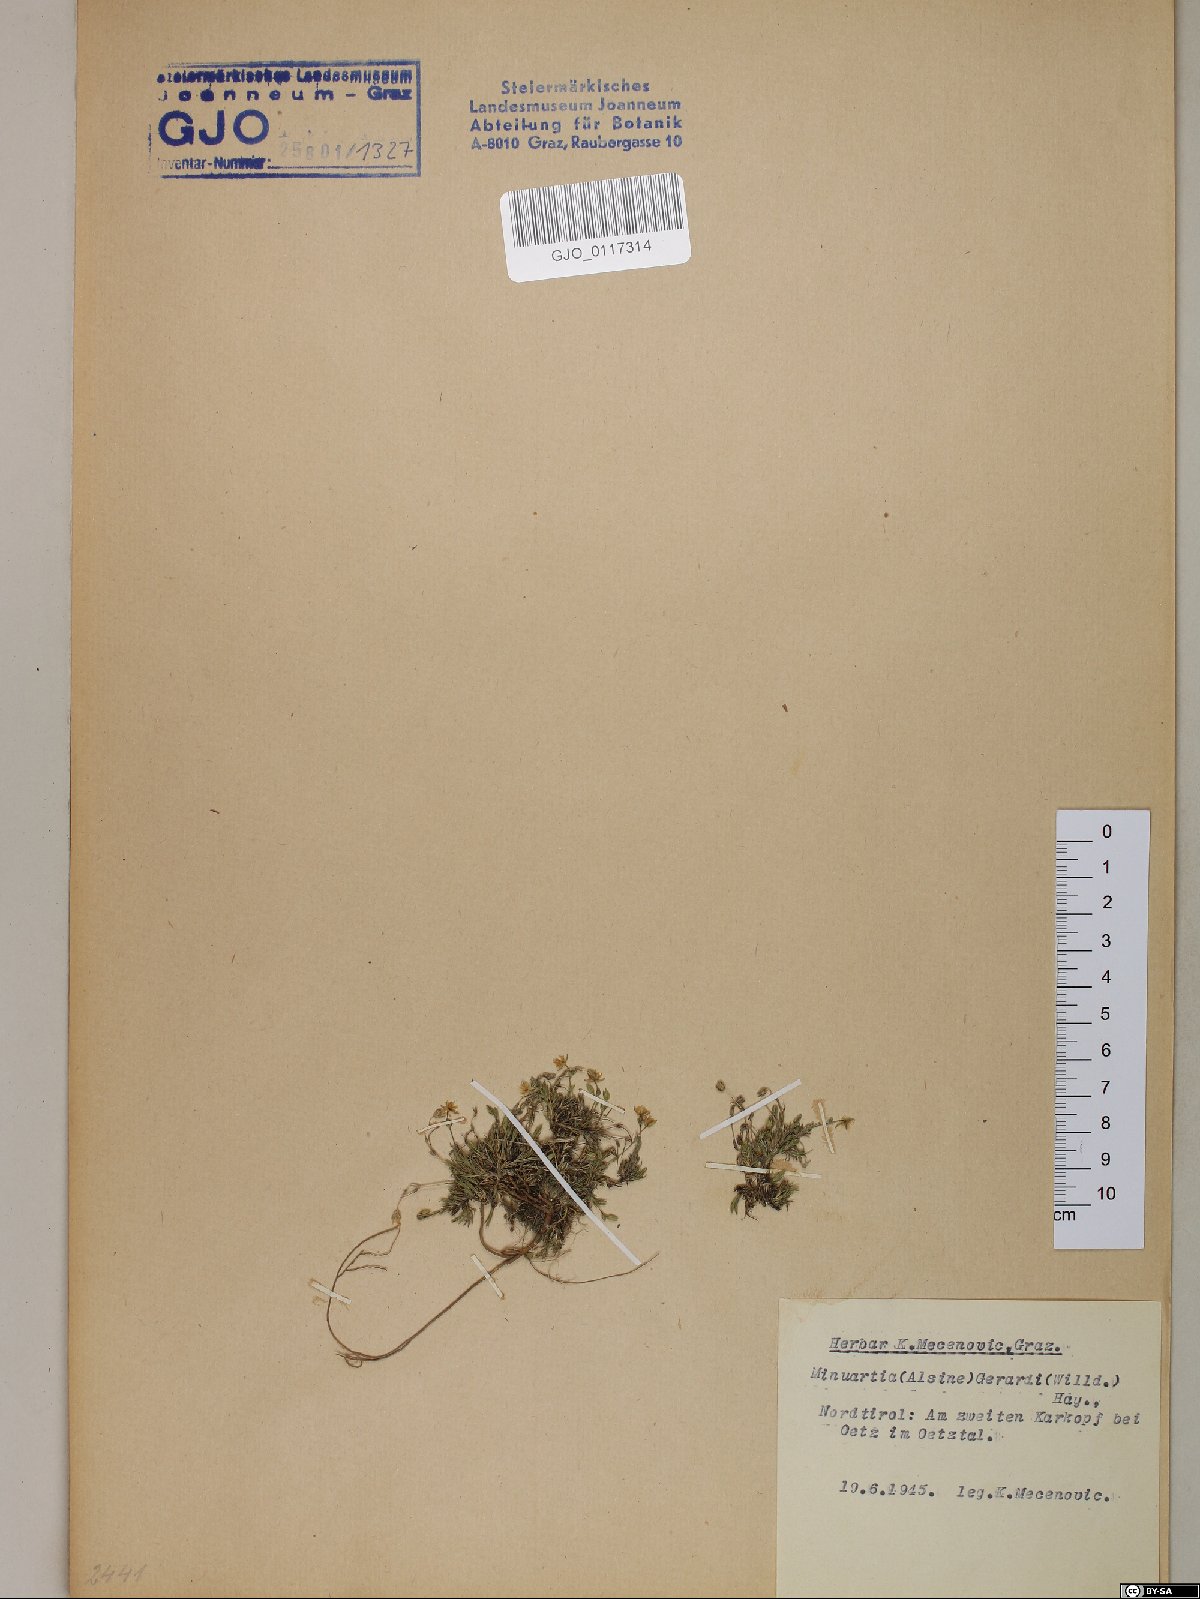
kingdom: Plantae
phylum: Tracheophyta
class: Magnoliopsida
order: Caryophyllales
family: Caryophyllaceae
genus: Sabulina
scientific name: Sabulina verna
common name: Spring sandwort
